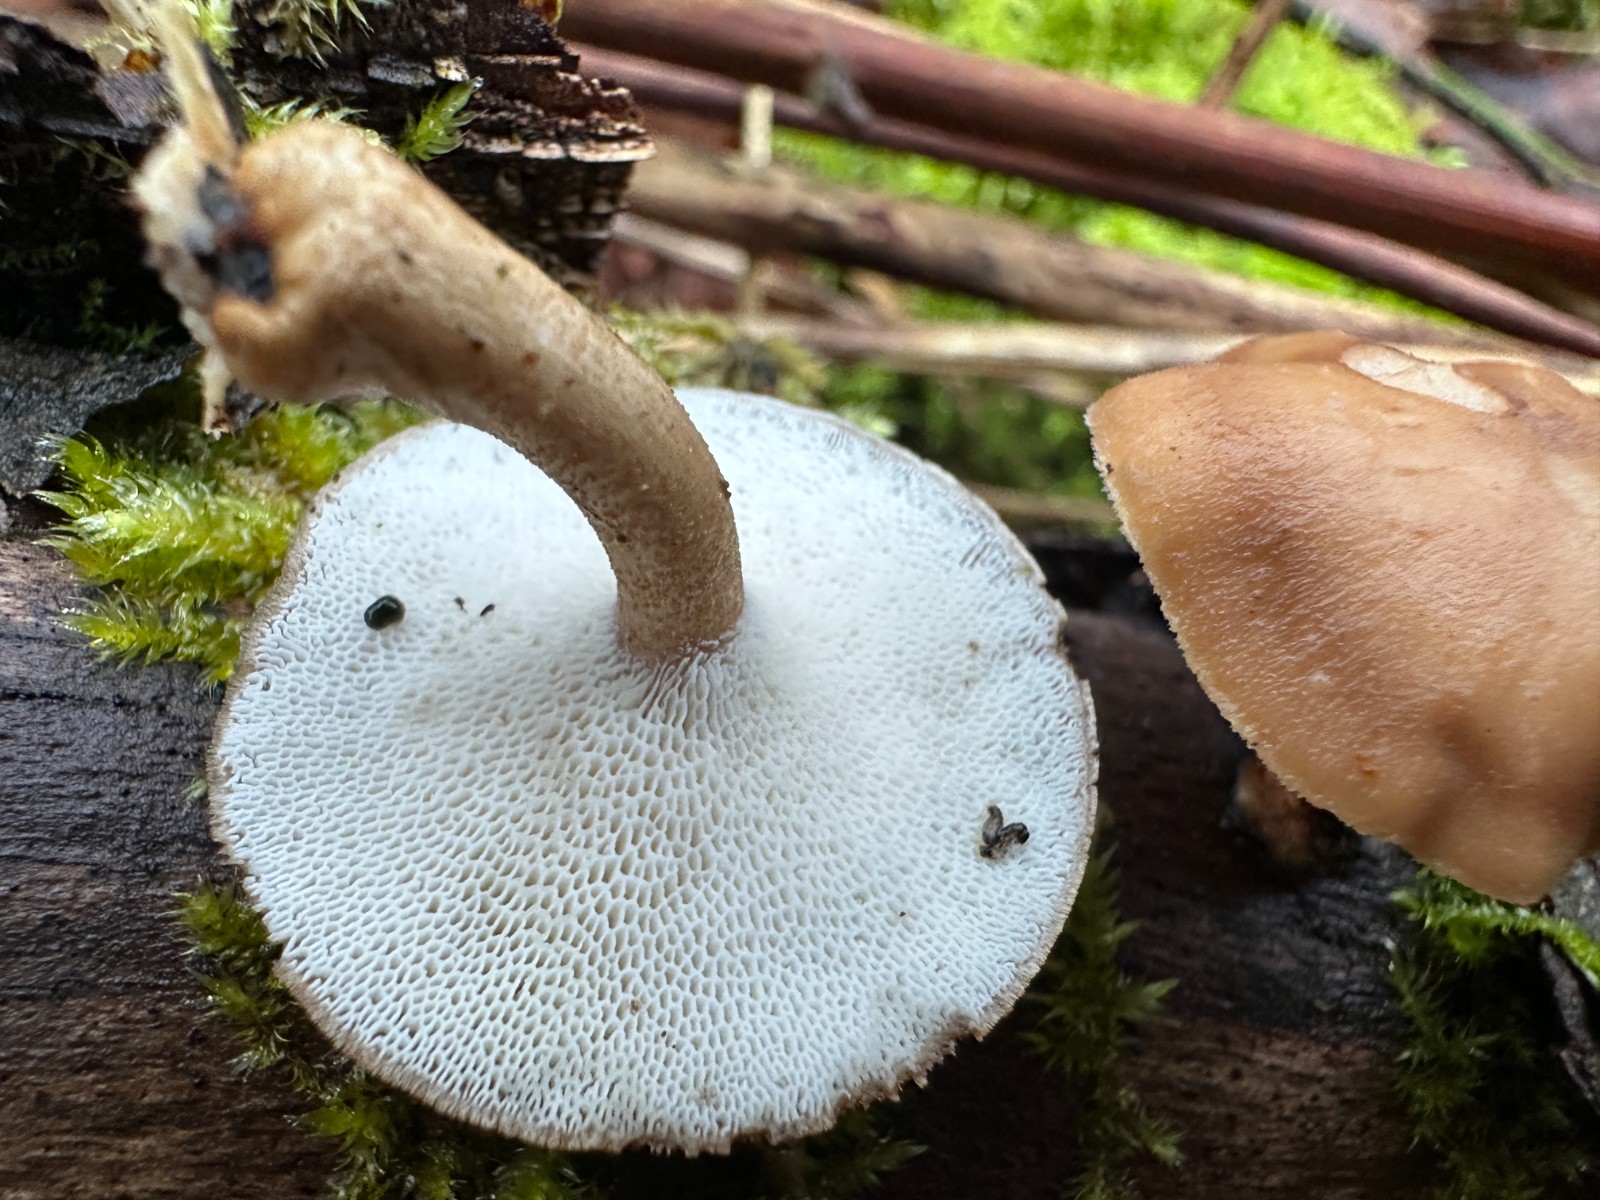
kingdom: Fungi
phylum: Basidiomycota
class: Agaricomycetes
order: Polyporales
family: Polyporaceae
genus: Lentinus
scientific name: Lentinus brumalis
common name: vinter-stilkporesvamp
